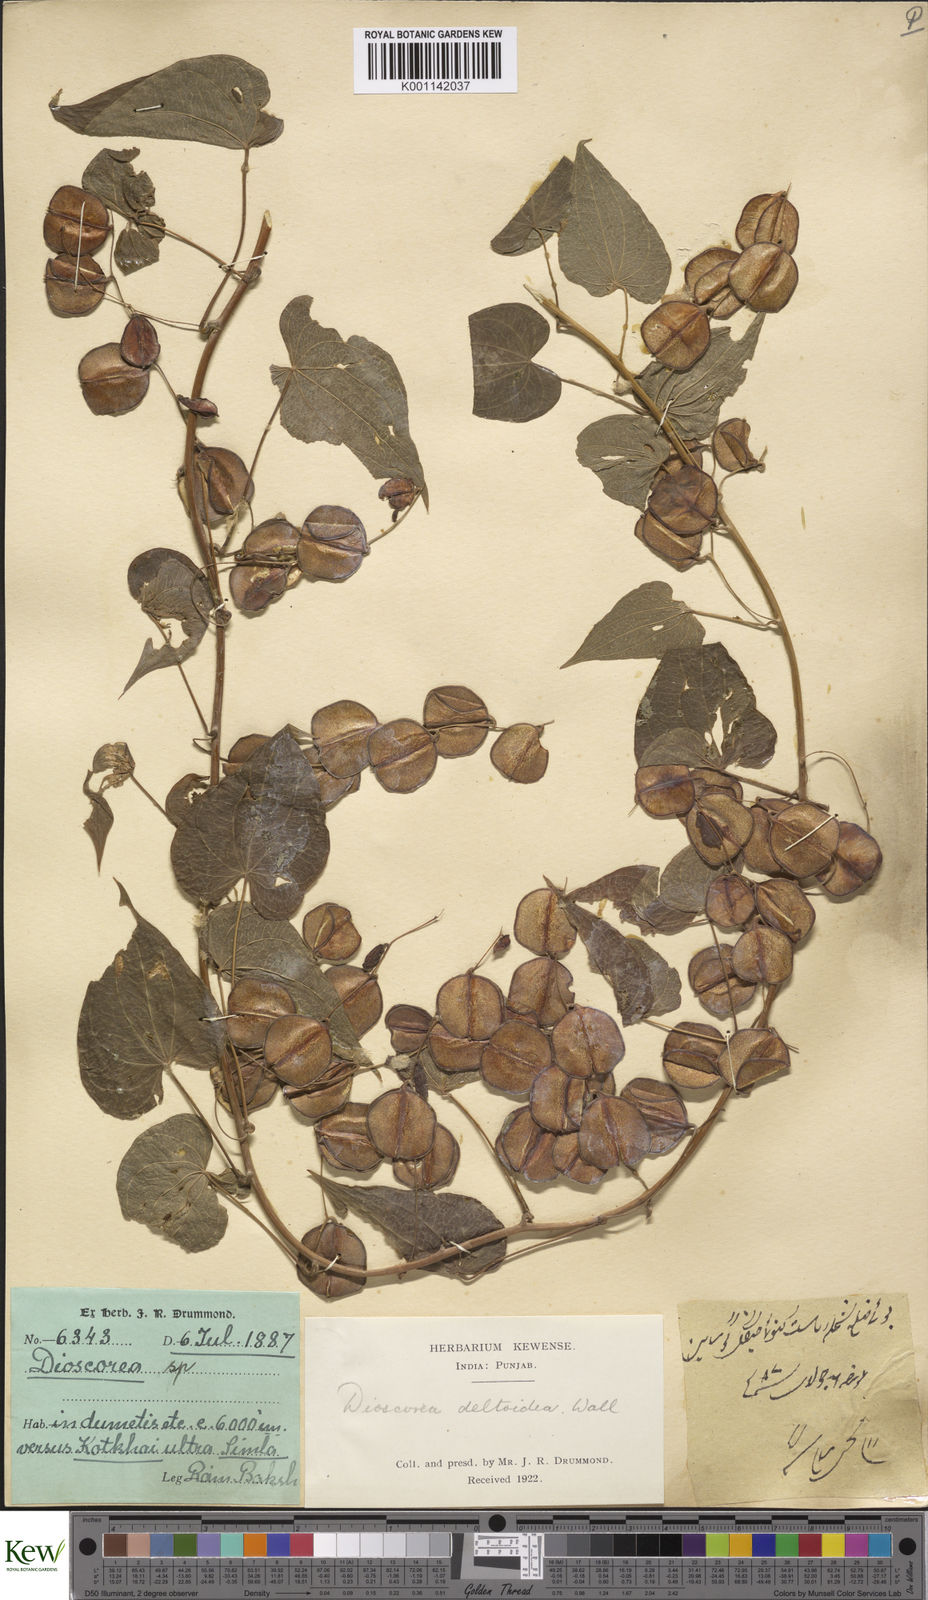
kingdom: Plantae
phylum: Tracheophyta
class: Liliopsida
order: Dioscoreales
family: Dioscoreaceae
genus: Dioscorea
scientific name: Dioscorea deltoidea
